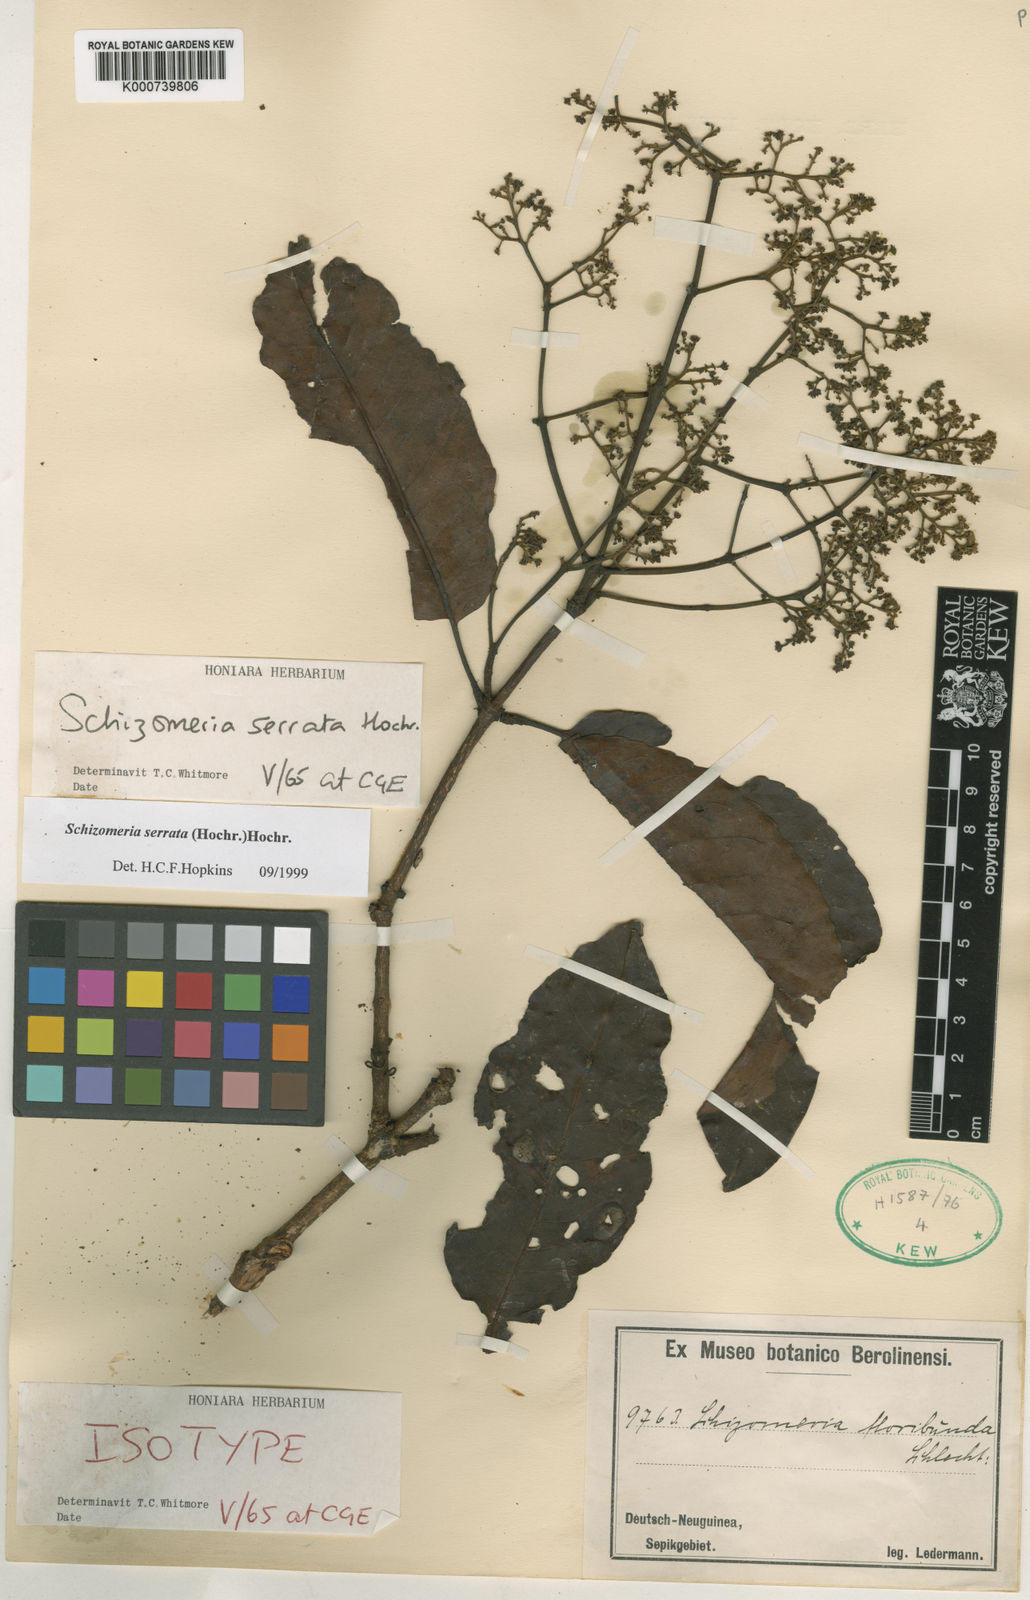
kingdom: Plantae
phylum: Tracheophyta
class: Magnoliopsida
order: Oxalidales
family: Cunoniaceae
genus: Schizomeria
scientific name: Schizomeria serrata
